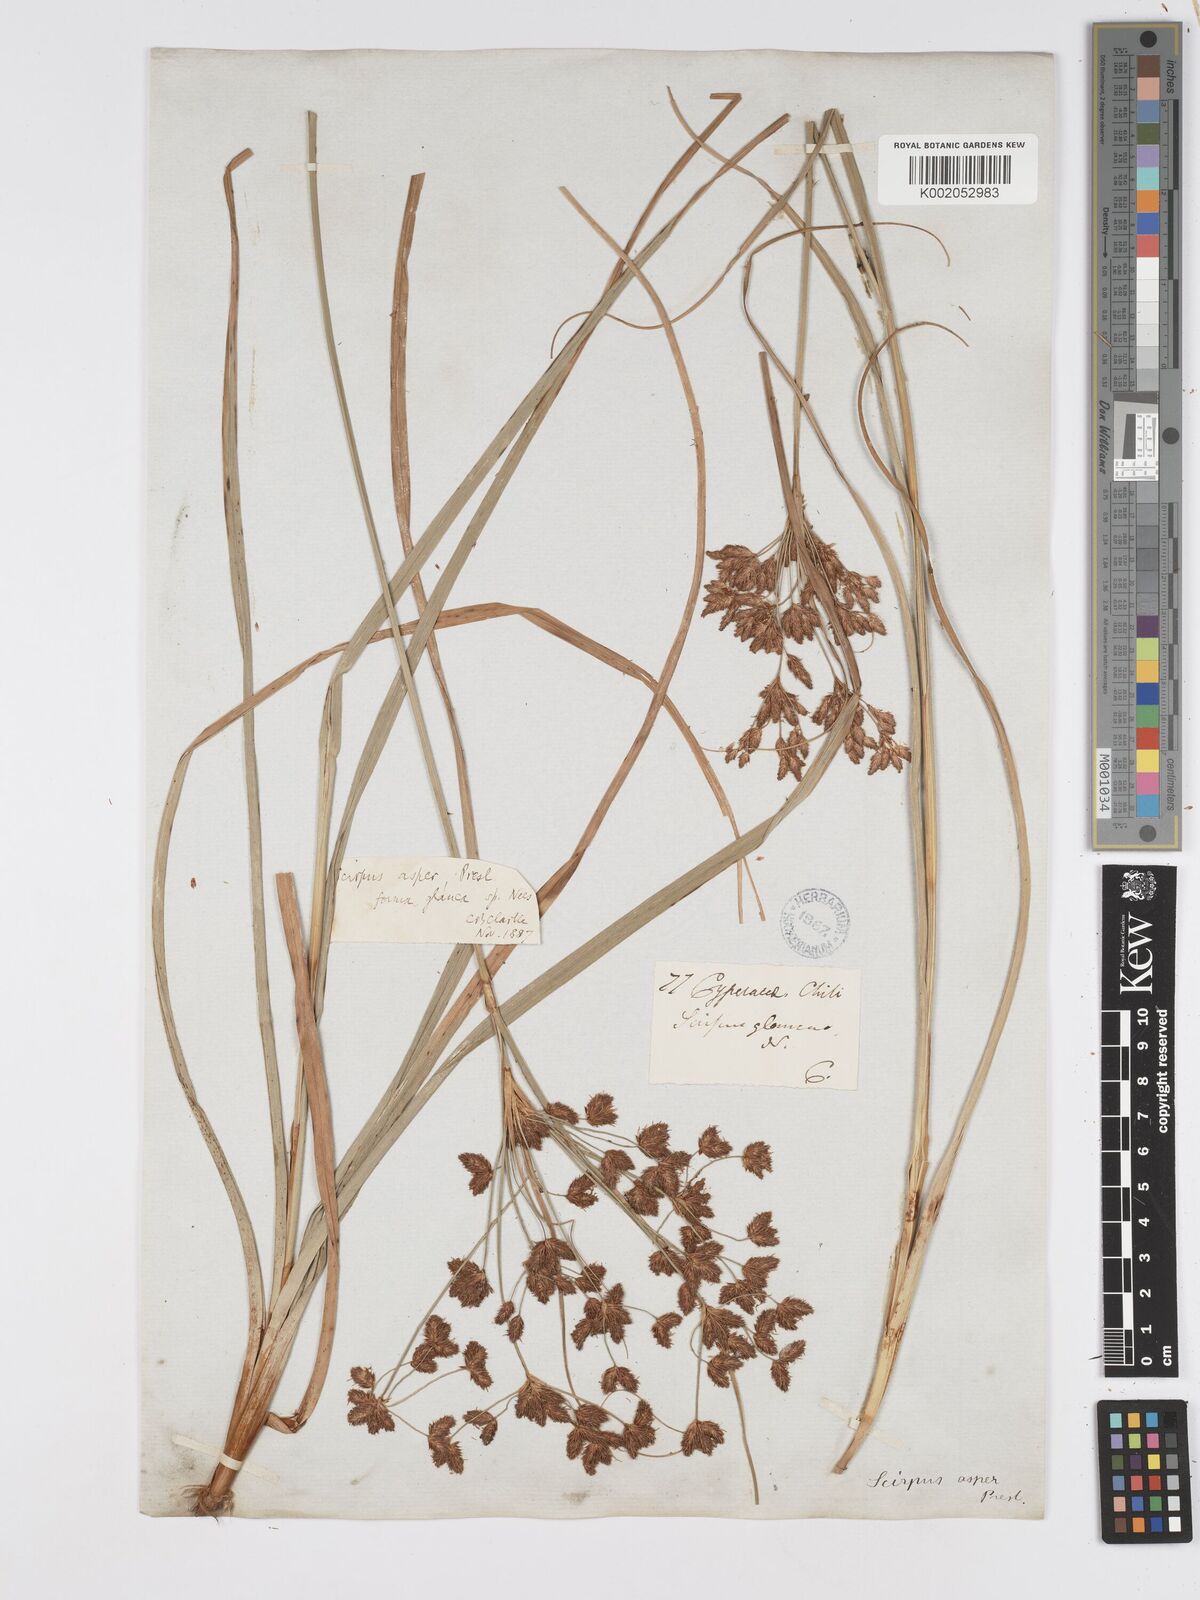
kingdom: Plantae
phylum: Tracheophyta
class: Liliopsida
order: Poales
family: Cyperaceae
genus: Rhodoscirpus
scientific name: Rhodoscirpus asper
